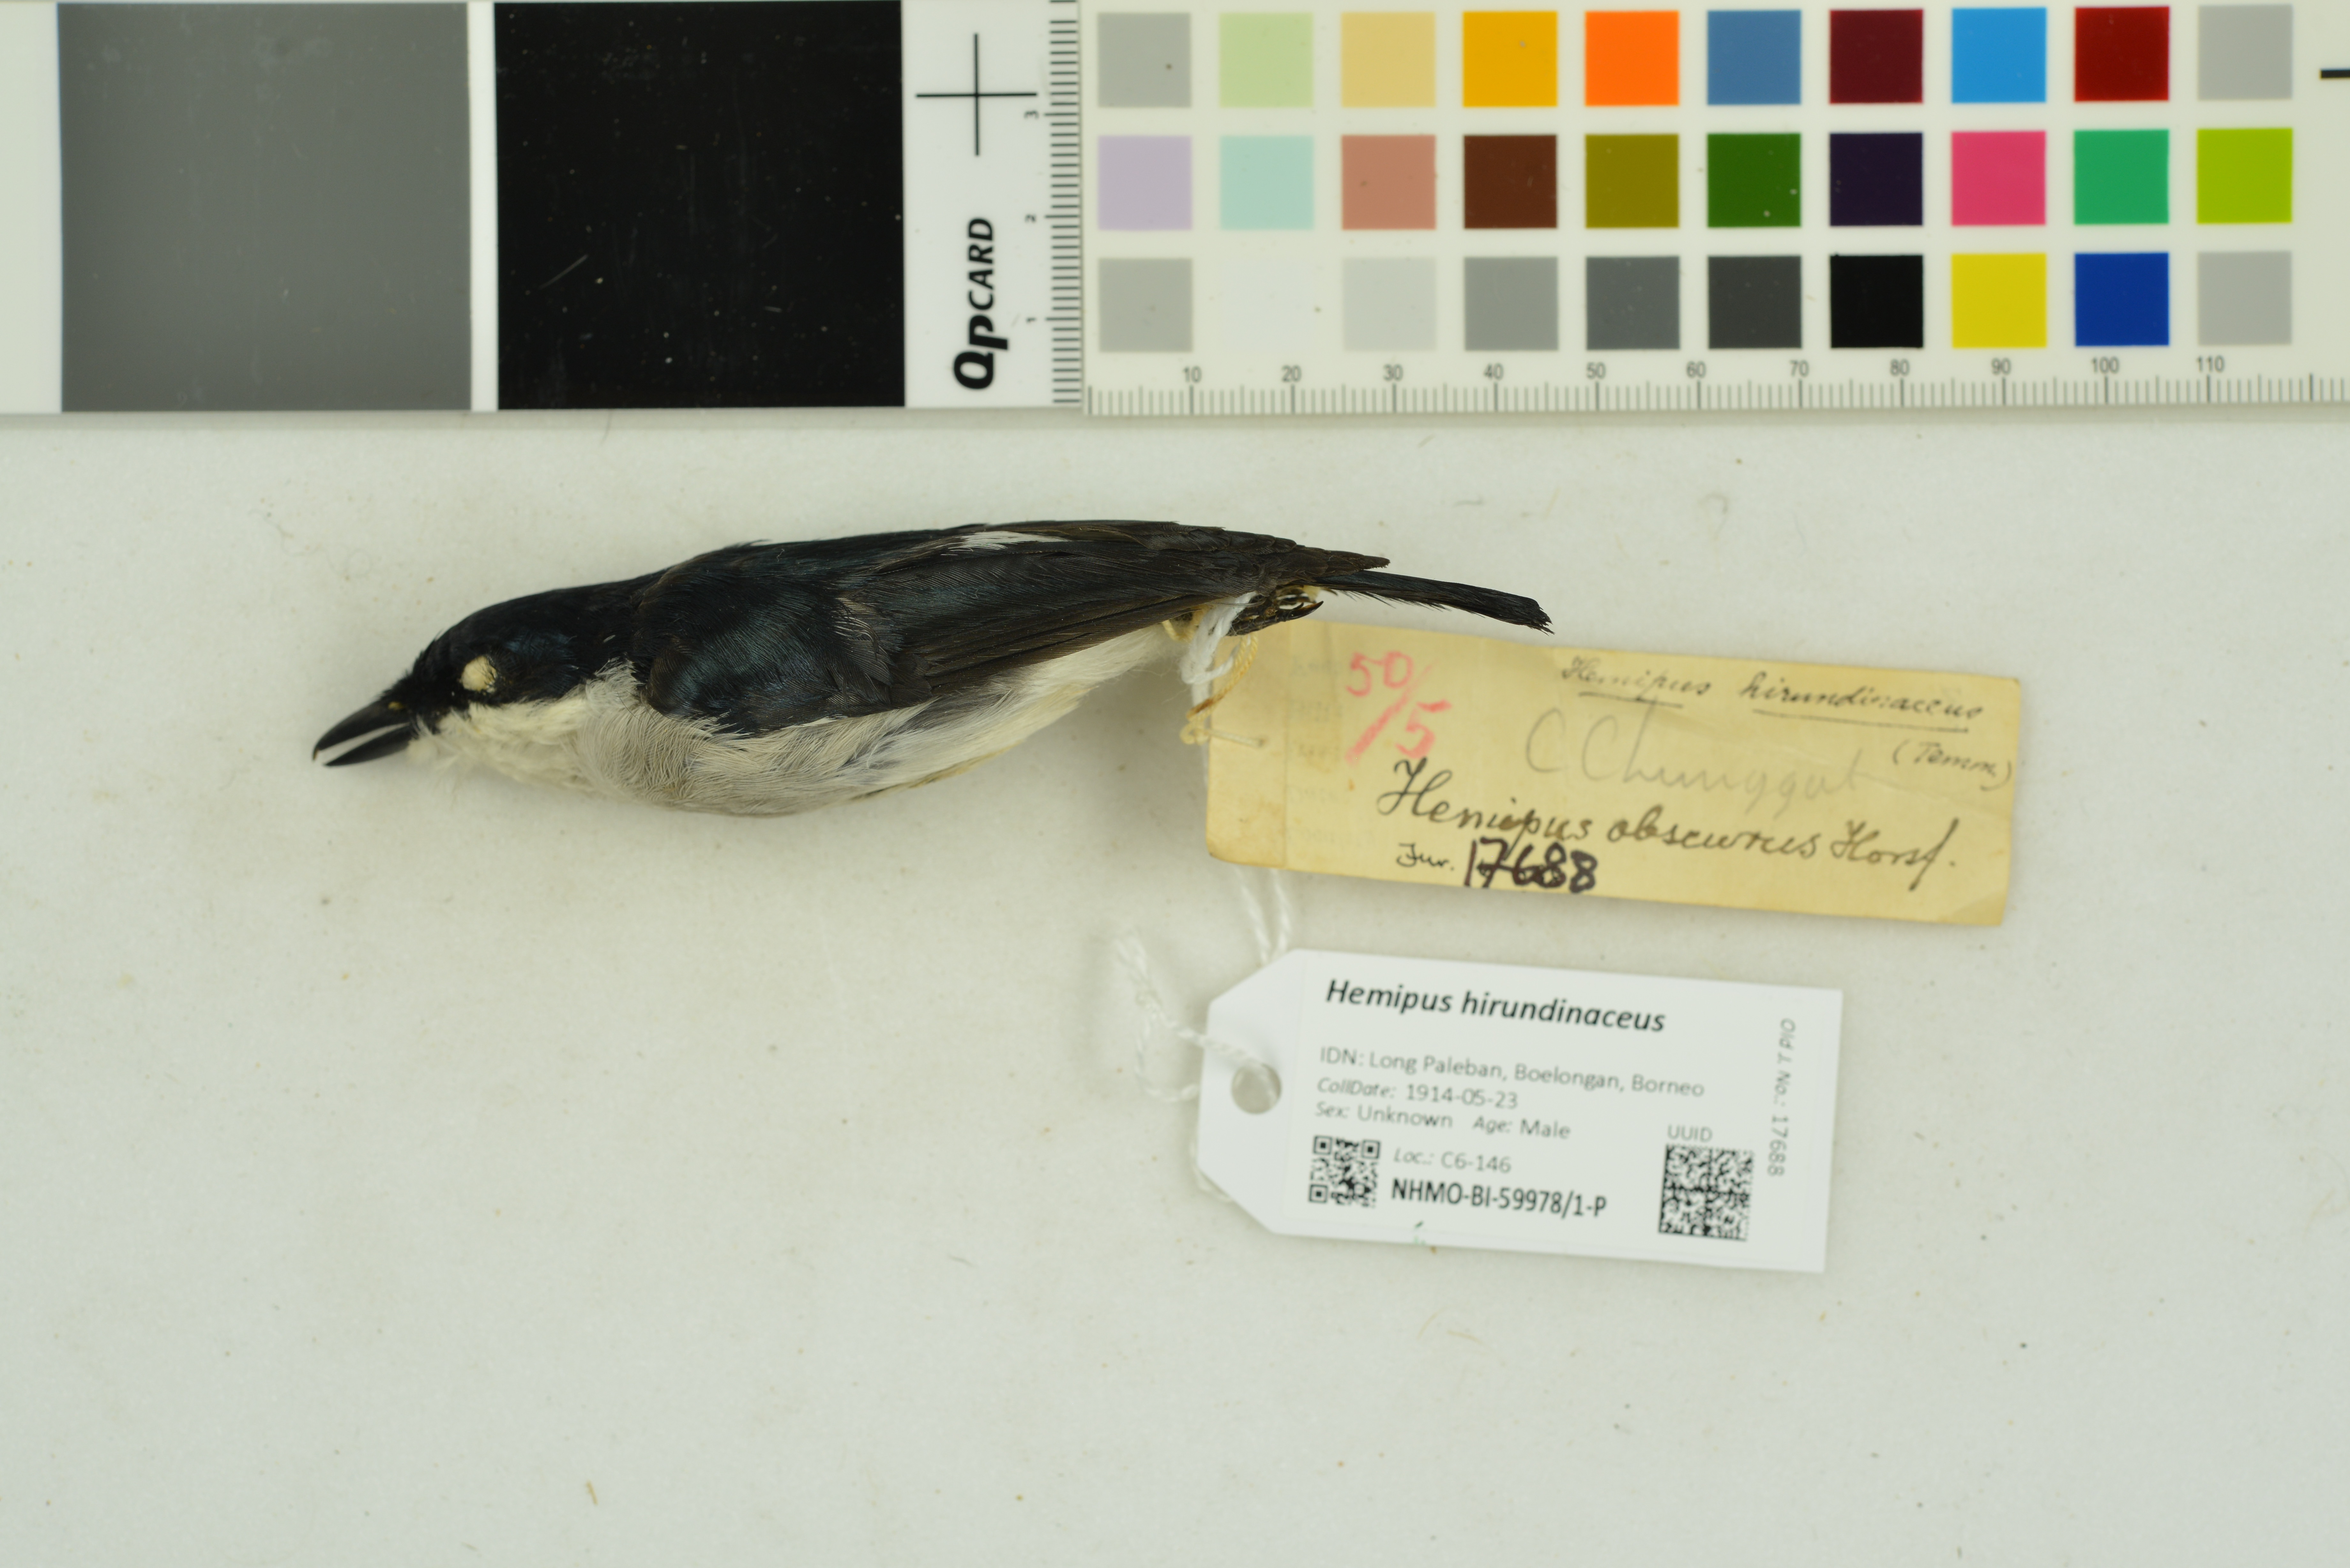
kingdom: Animalia
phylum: Chordata
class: Aves
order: Passeriformes
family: Tephrodornithidae
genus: Hemipus
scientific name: Hemipus hirundinaceus
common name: Black-winged flycatcher-shrike
